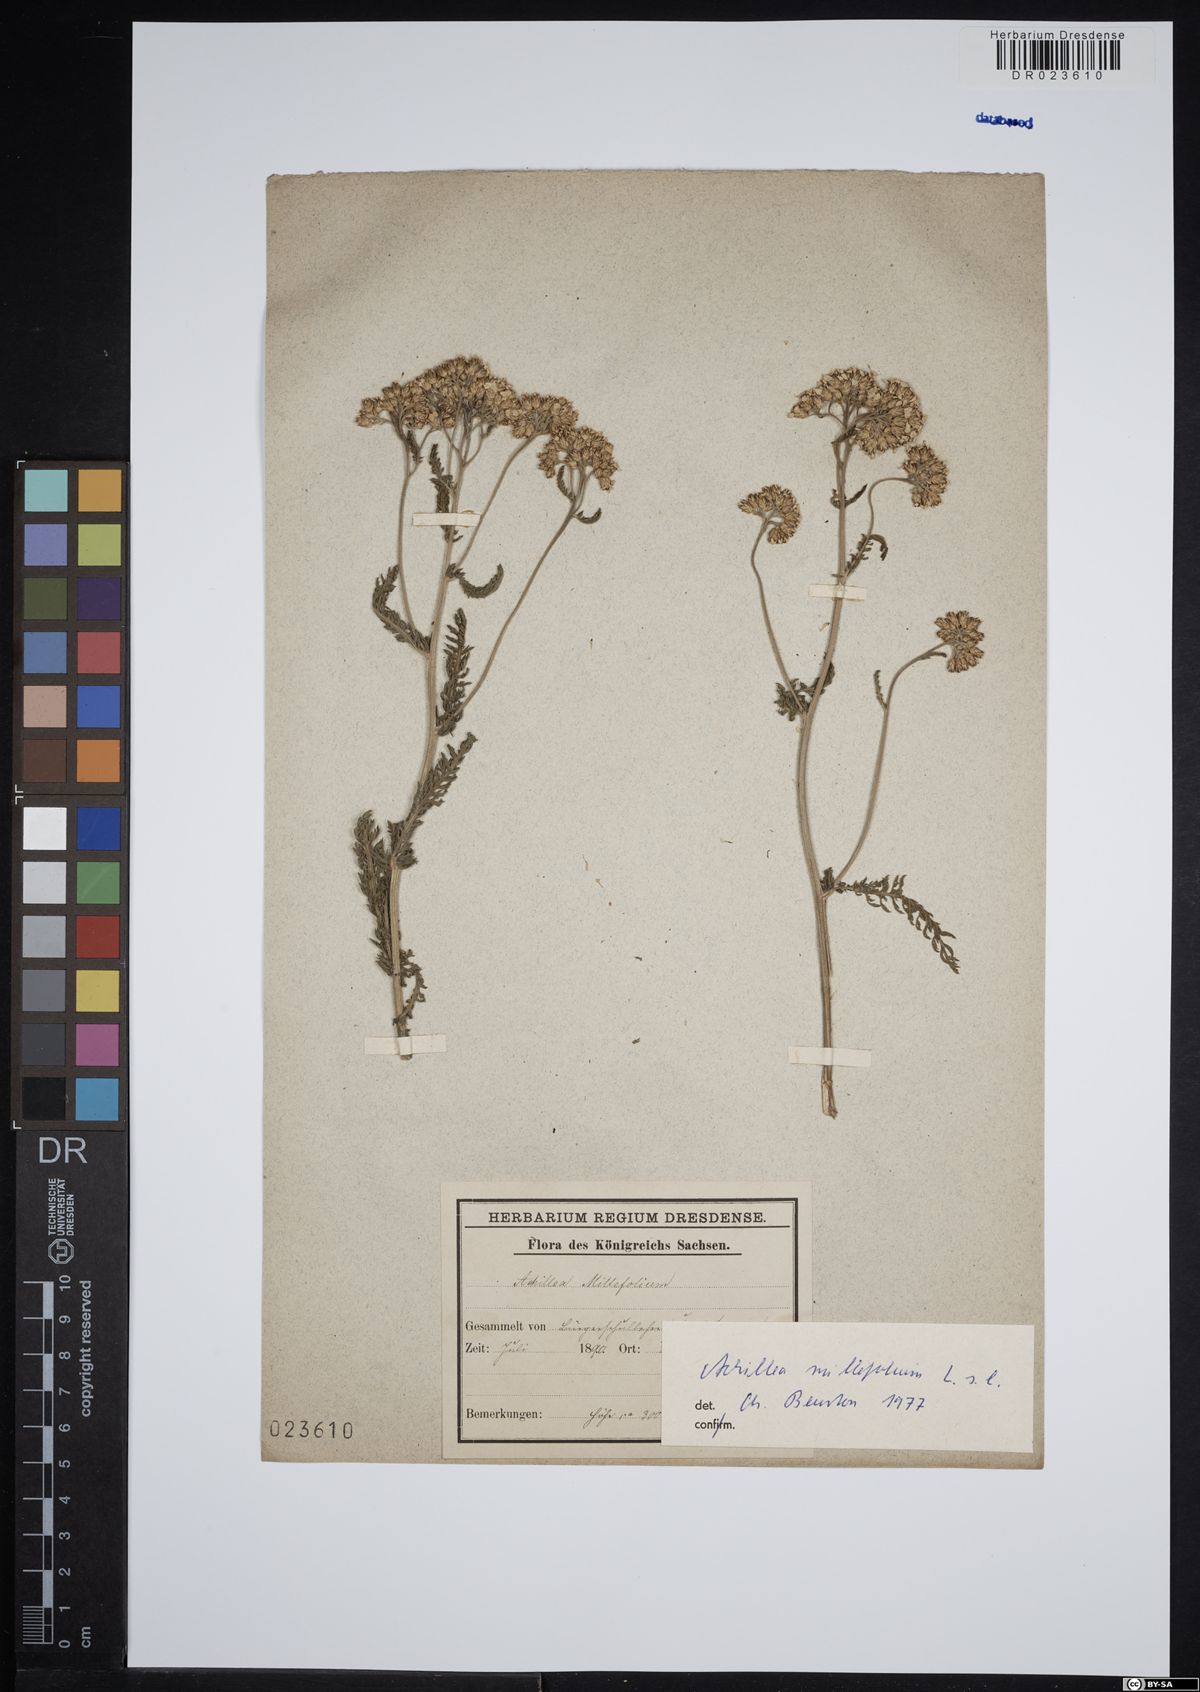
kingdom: Plantae
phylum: Tracheophyta
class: Magnoliopsida
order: Asterales
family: Asteraceae
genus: Achillea
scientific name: Achillea millefolium
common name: Yarrow
